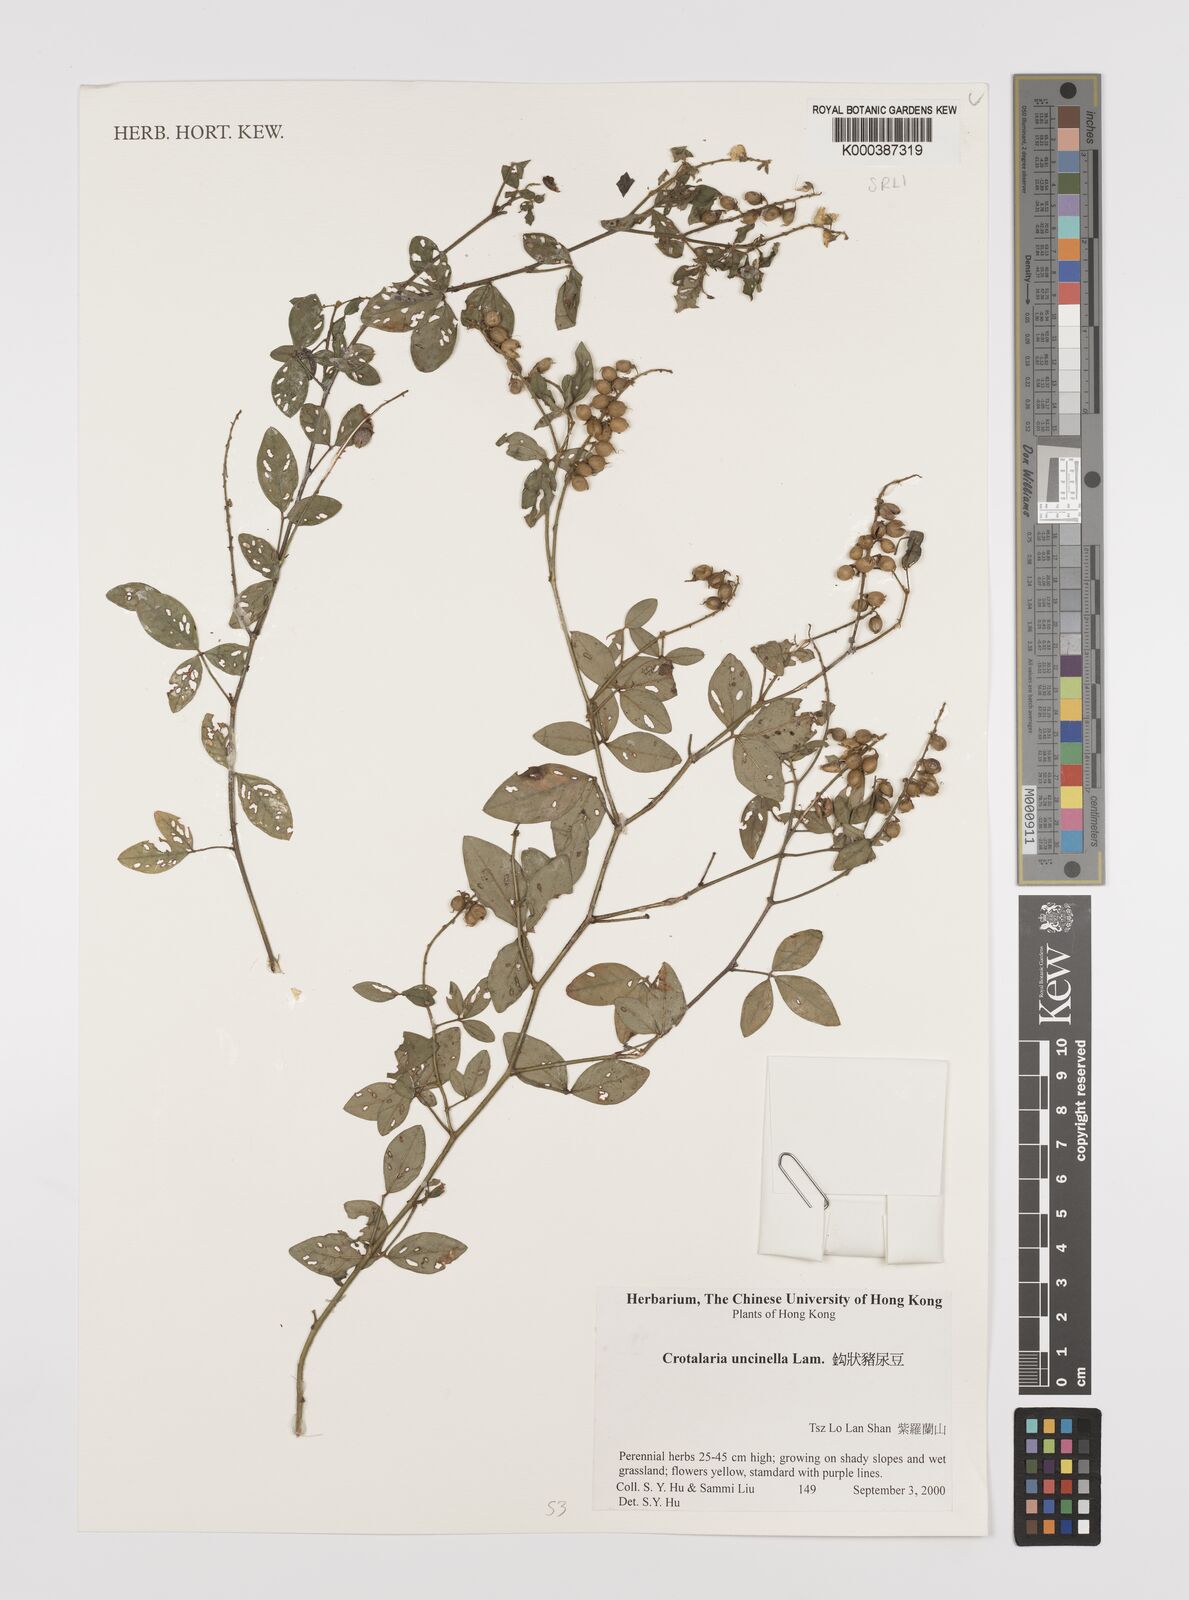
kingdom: Plantae
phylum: Tracheophyta
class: Magnoliopsida
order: Fabales
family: Fabaceae
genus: Crotalaria
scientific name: Crotalaria uncinella
